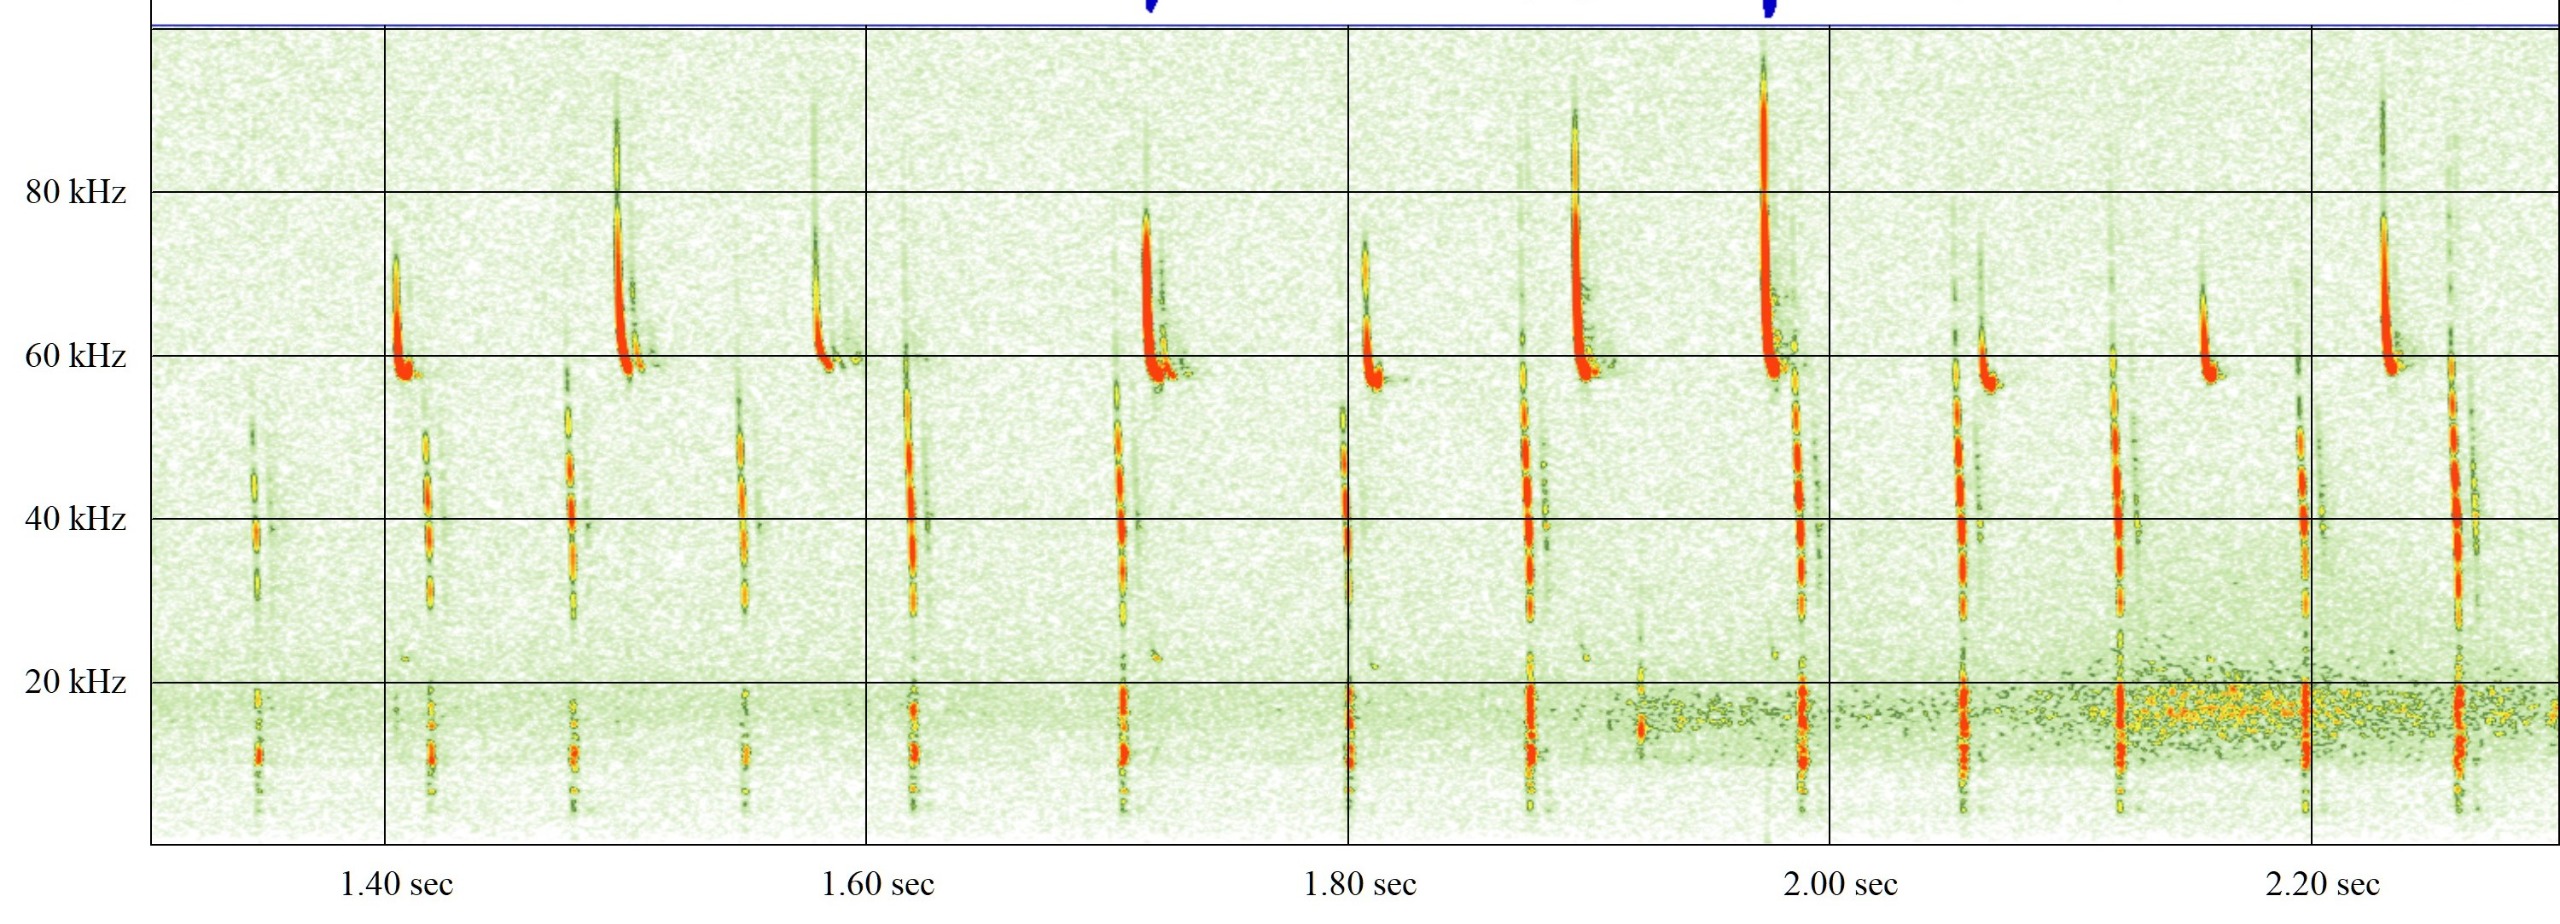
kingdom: Animalia
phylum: Chordata
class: Mammalia
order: Chiroptera
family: Vespertilionidae
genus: Pipistrellus
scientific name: Pipistrellus pygmaeus
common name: Dværgflagermus
